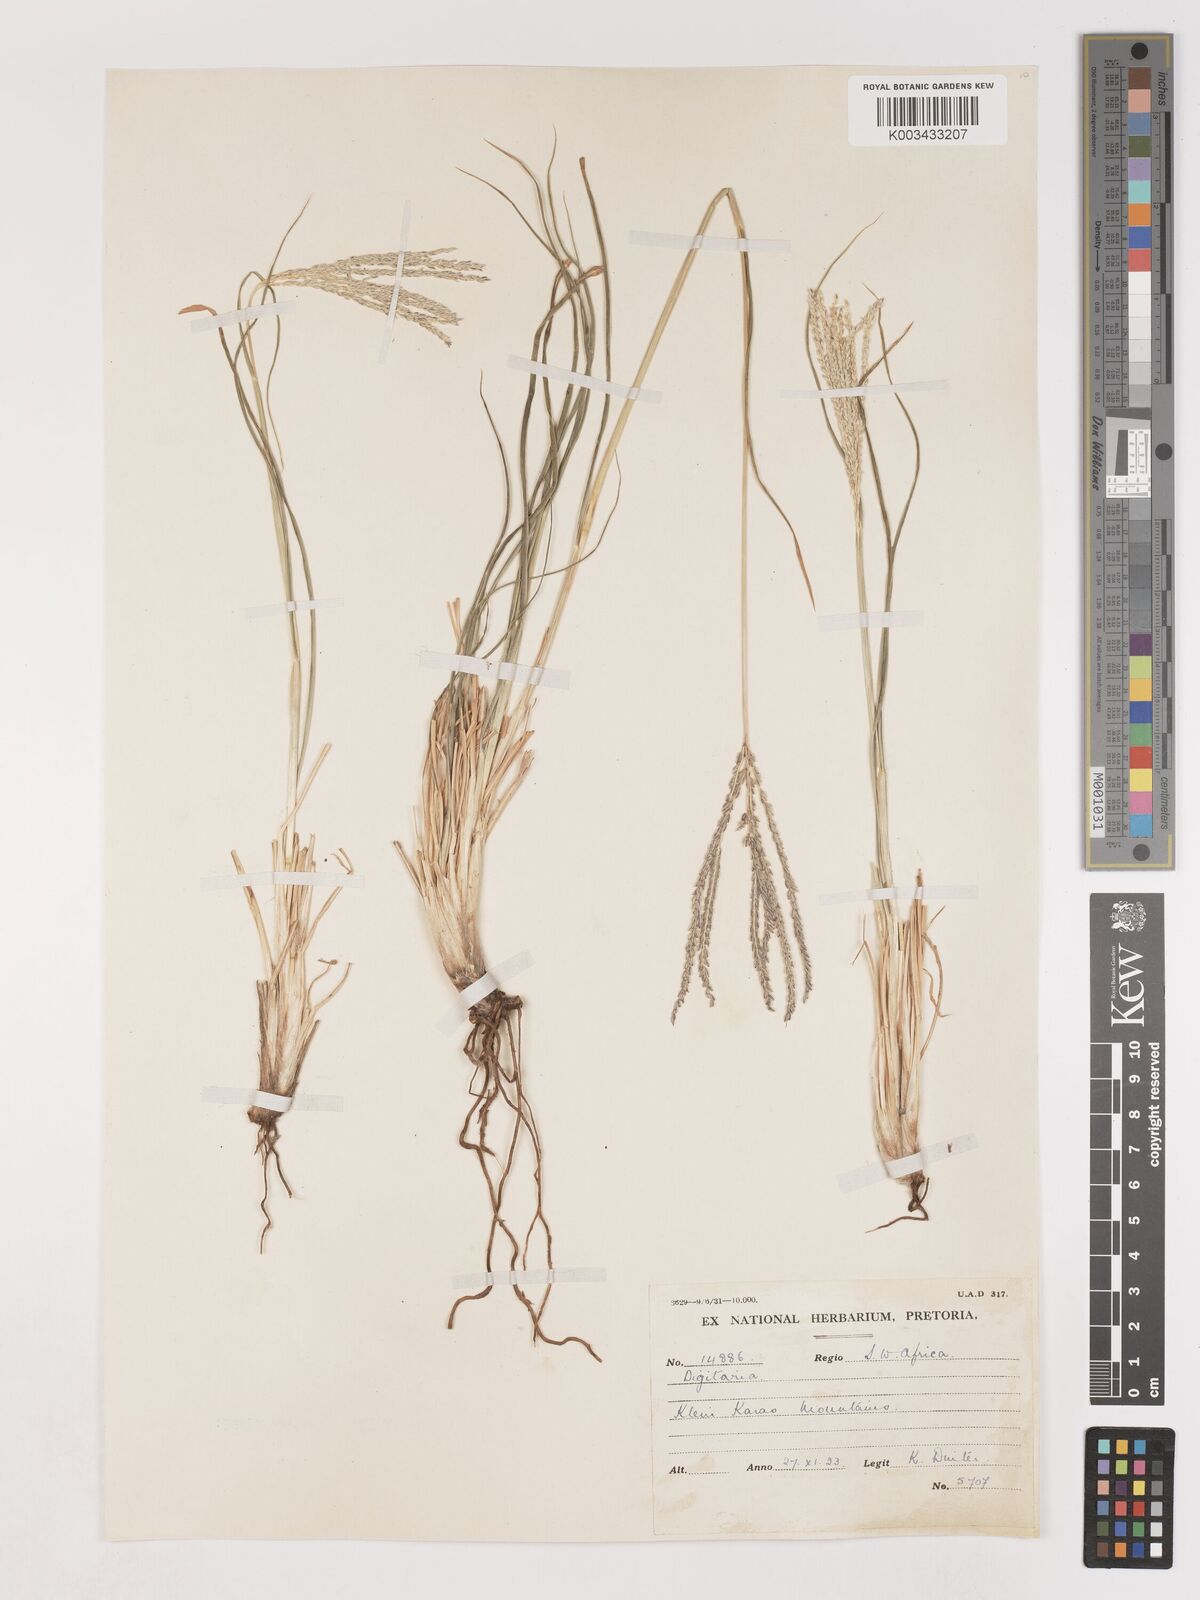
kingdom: Plantae
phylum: Tracheophyta
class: Liliopsida
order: Poales
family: Poaceae
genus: Digitaria
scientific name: Digitaria eriantha
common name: Digitgrass
